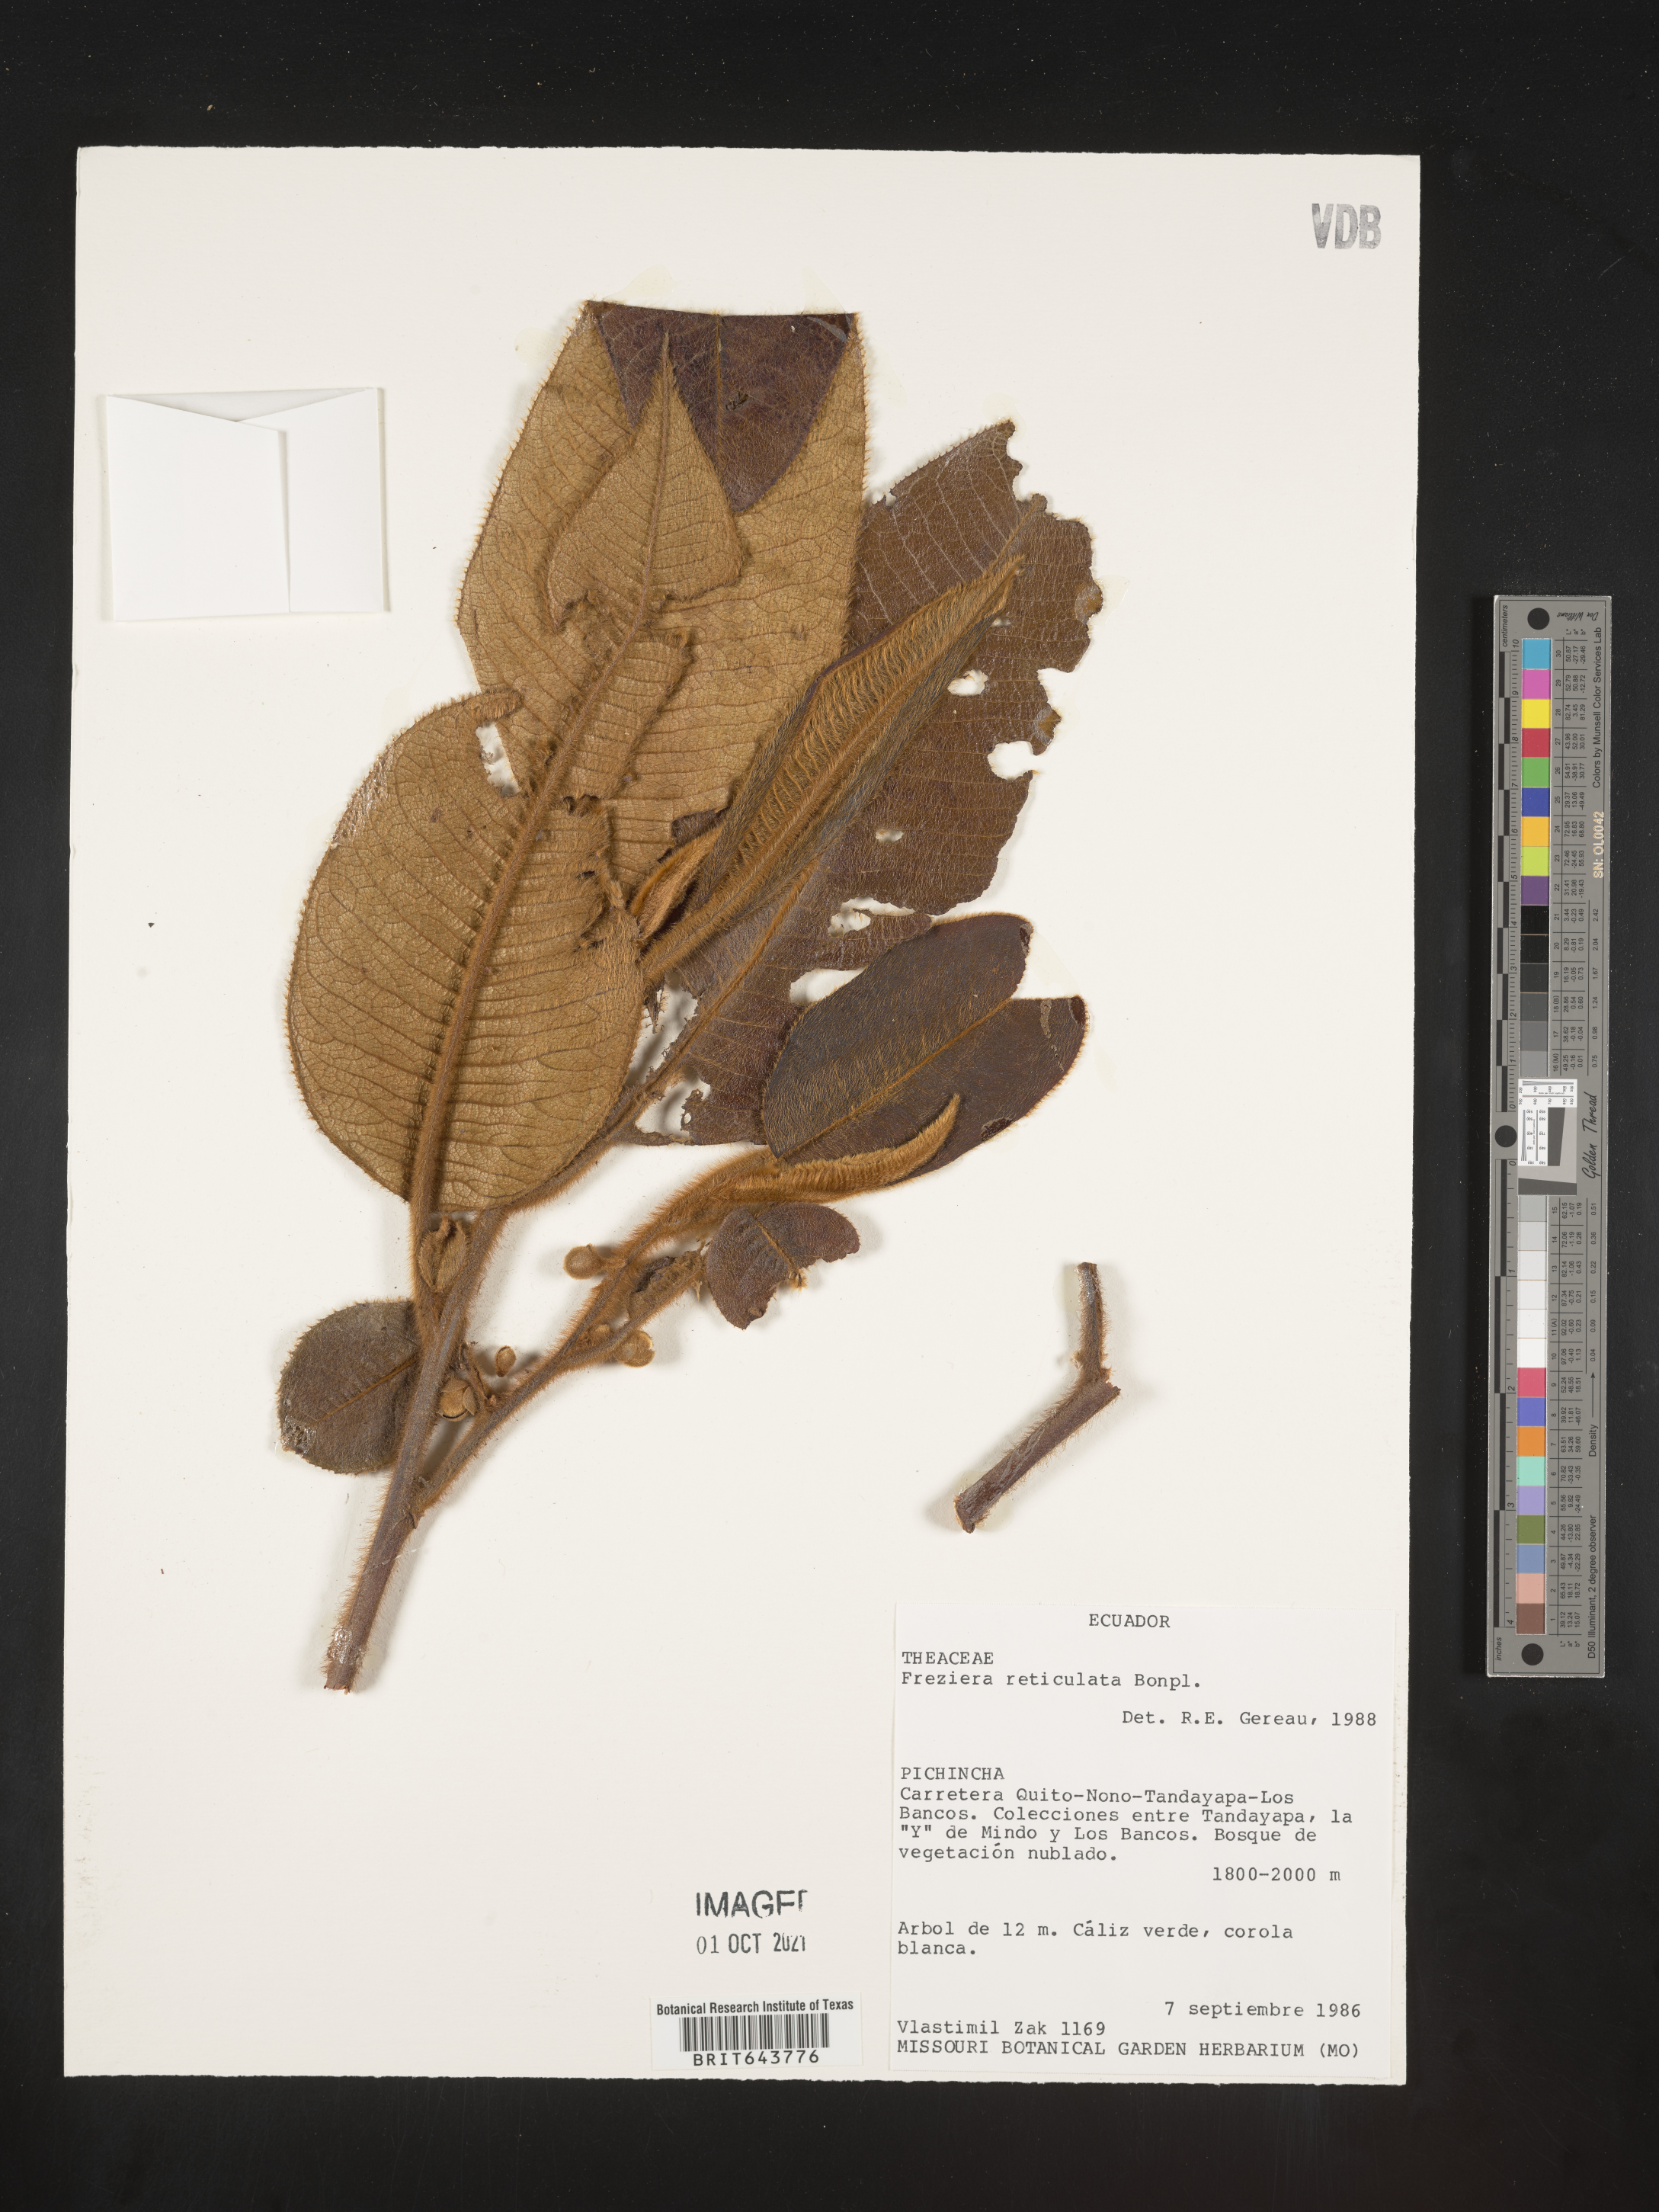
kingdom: Plantae
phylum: Tracheophyta
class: Magnoliopsida
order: Ericales
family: Pentaphylacaceae
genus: Freziera
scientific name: Freziera
